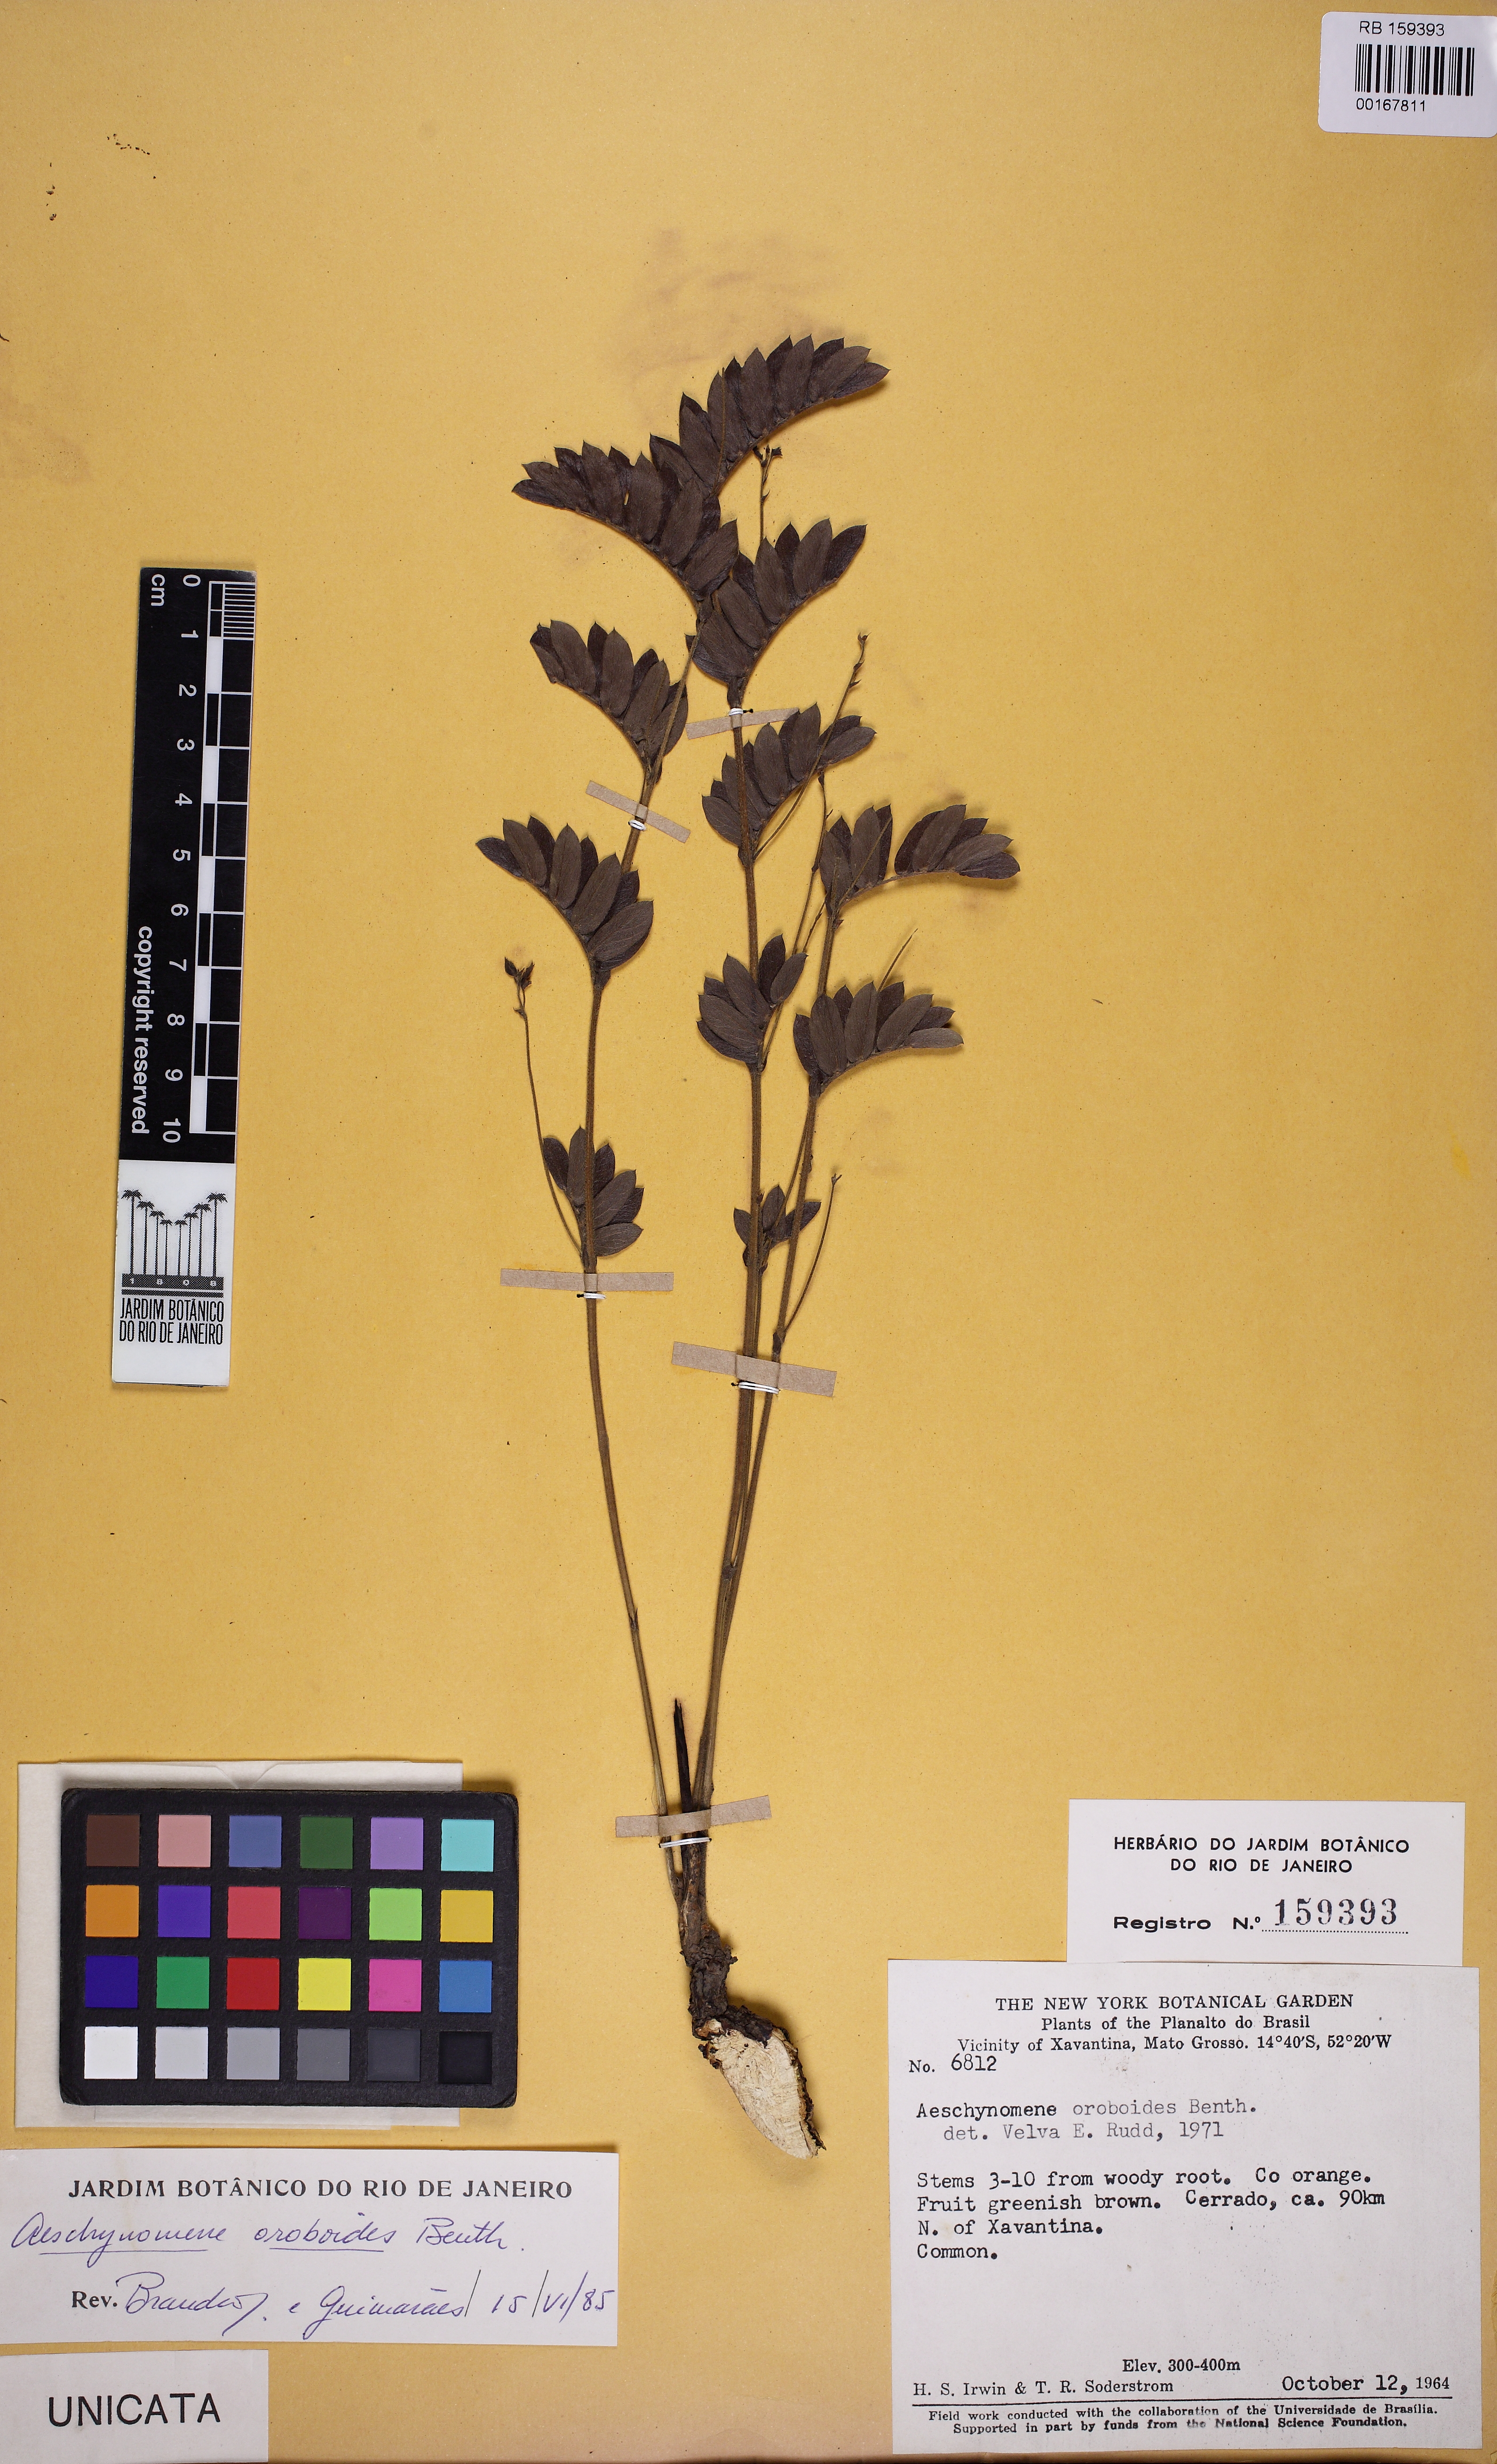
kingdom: Plantae
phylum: Tracheophyta
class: Magnoliopsida
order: Fabales
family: Fabaceae
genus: Ctenodon
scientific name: Ctenodon oroboides
